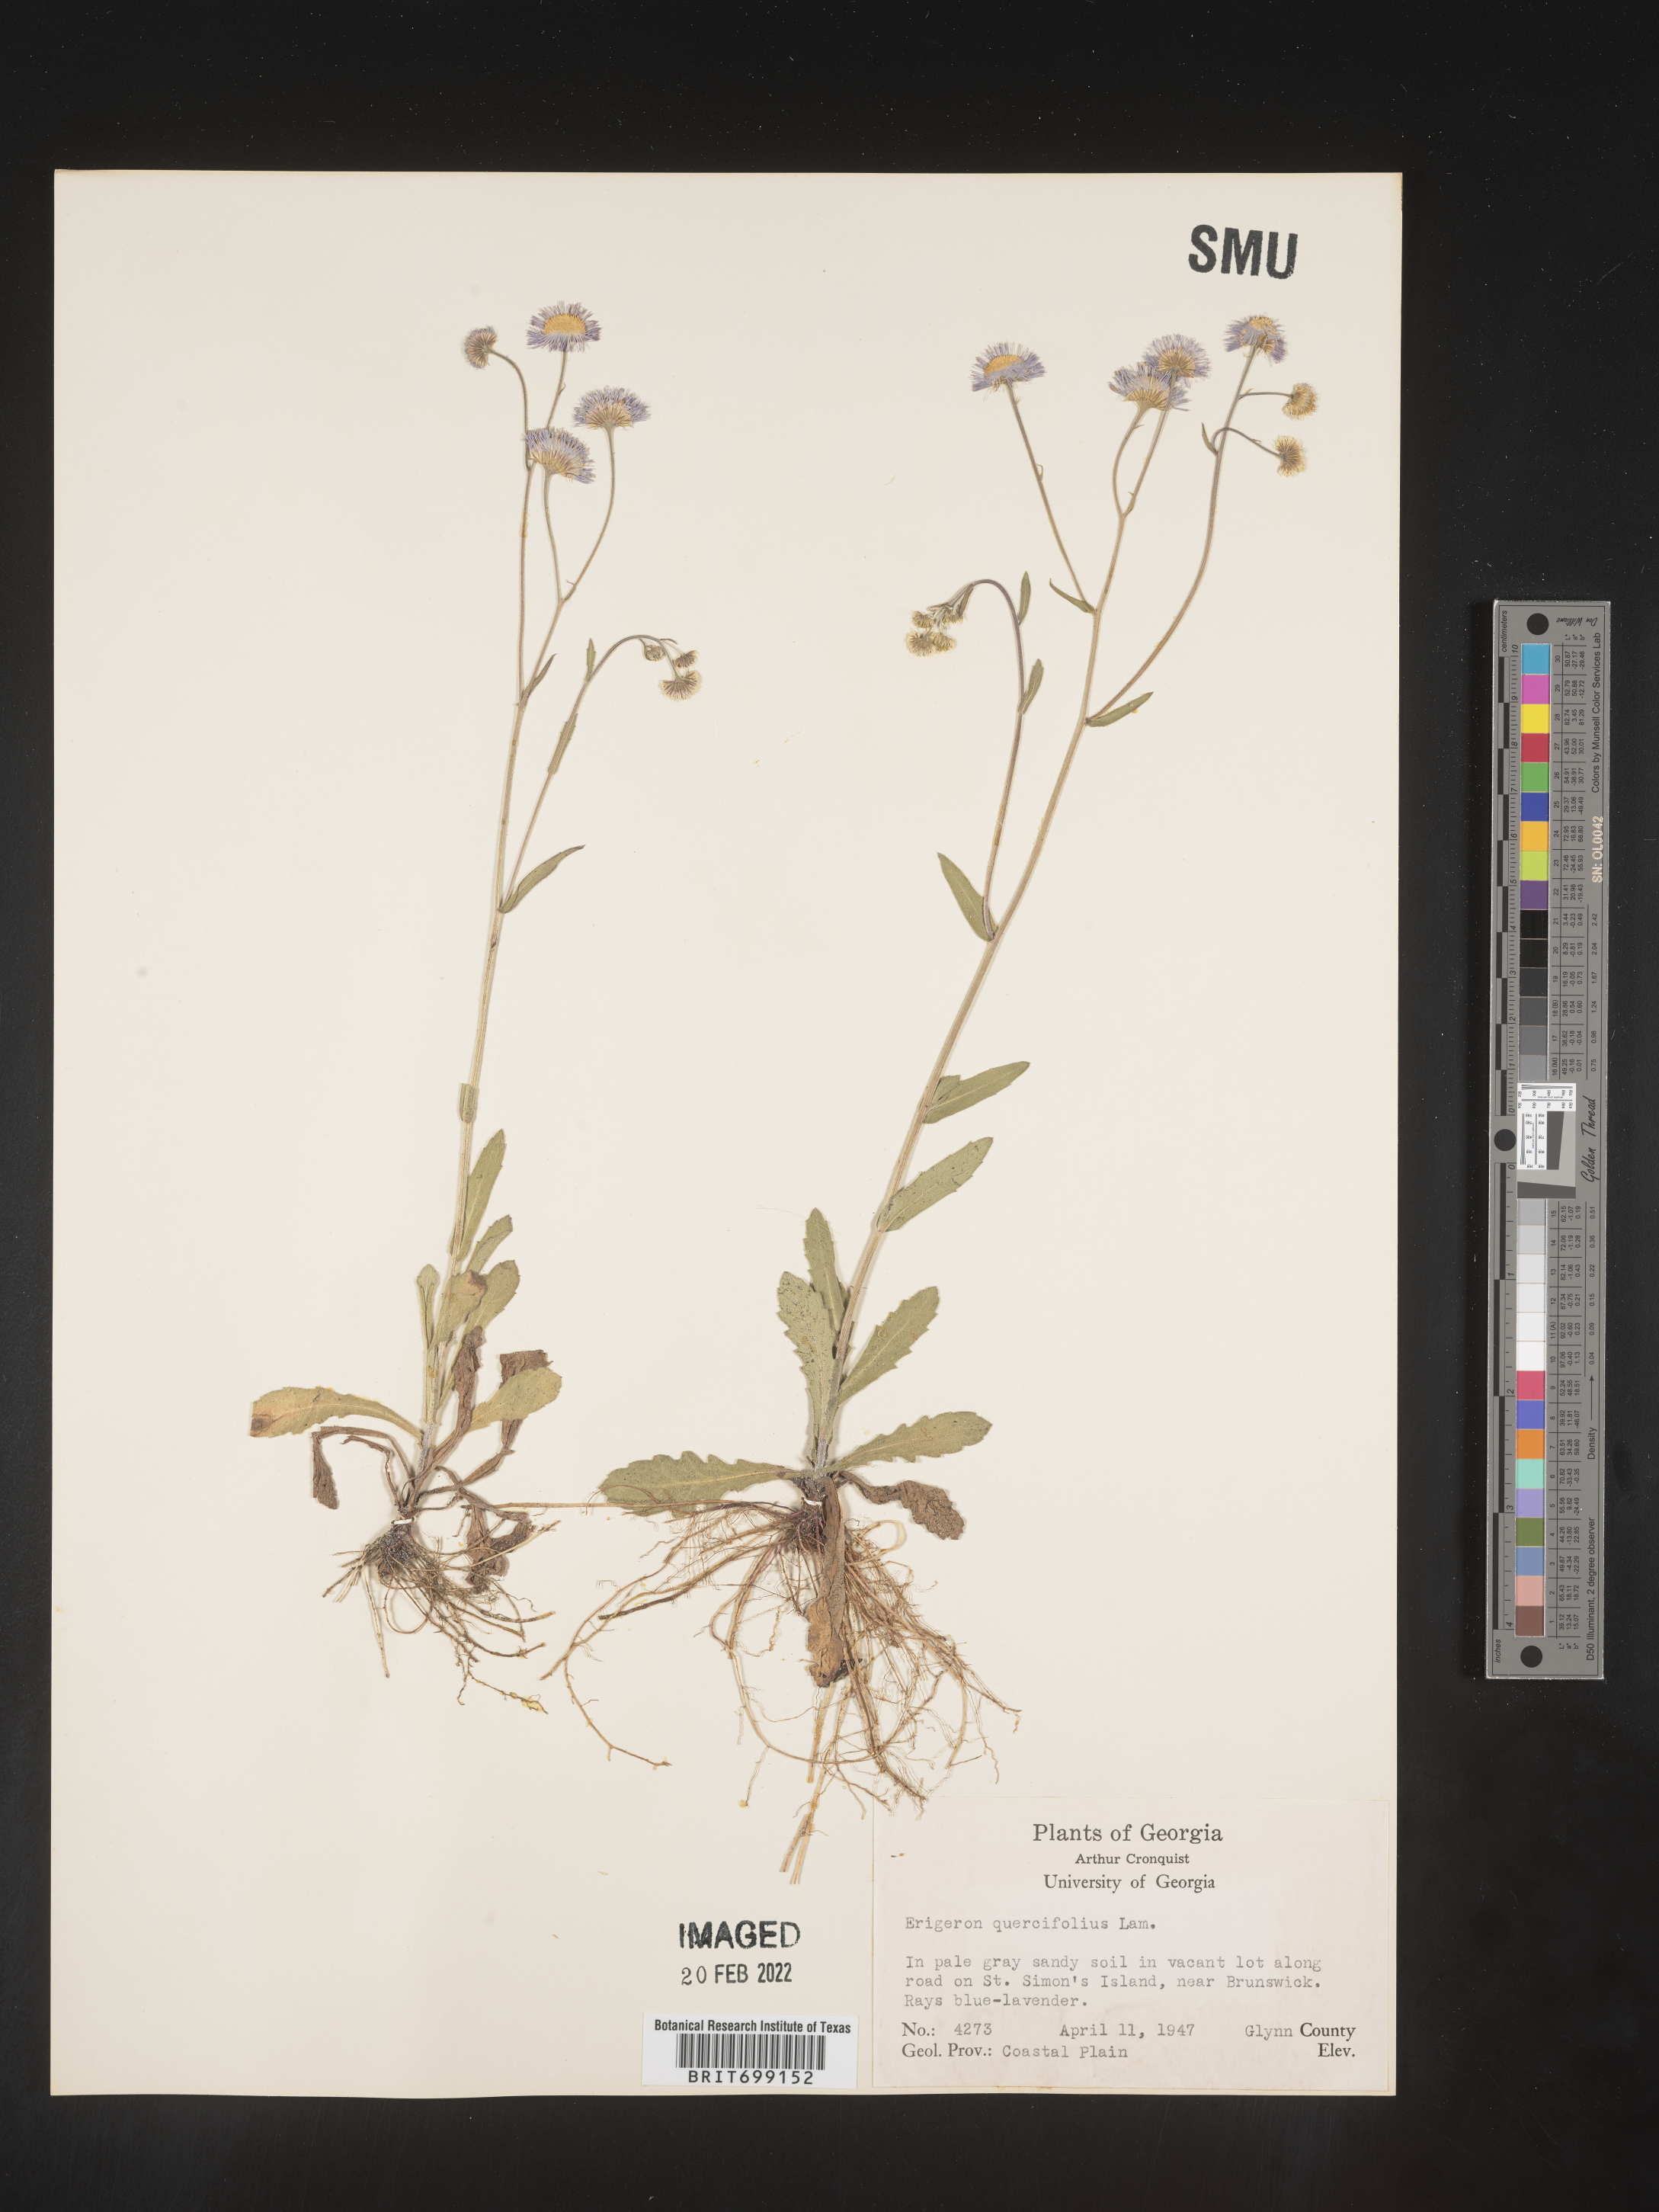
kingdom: Plantae
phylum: Tracheophyta
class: Magnoliopsida
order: Asterales
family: Asteraceae
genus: Erigeron
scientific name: Erigeron quercifolius
